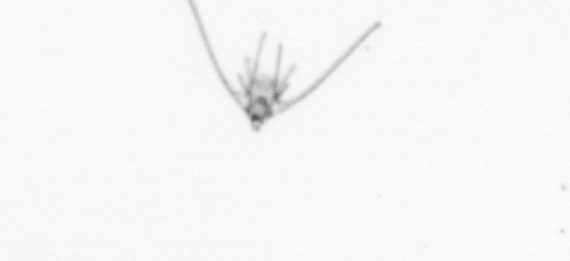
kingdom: Animalia
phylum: Echinodermata
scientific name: Echinodermata
